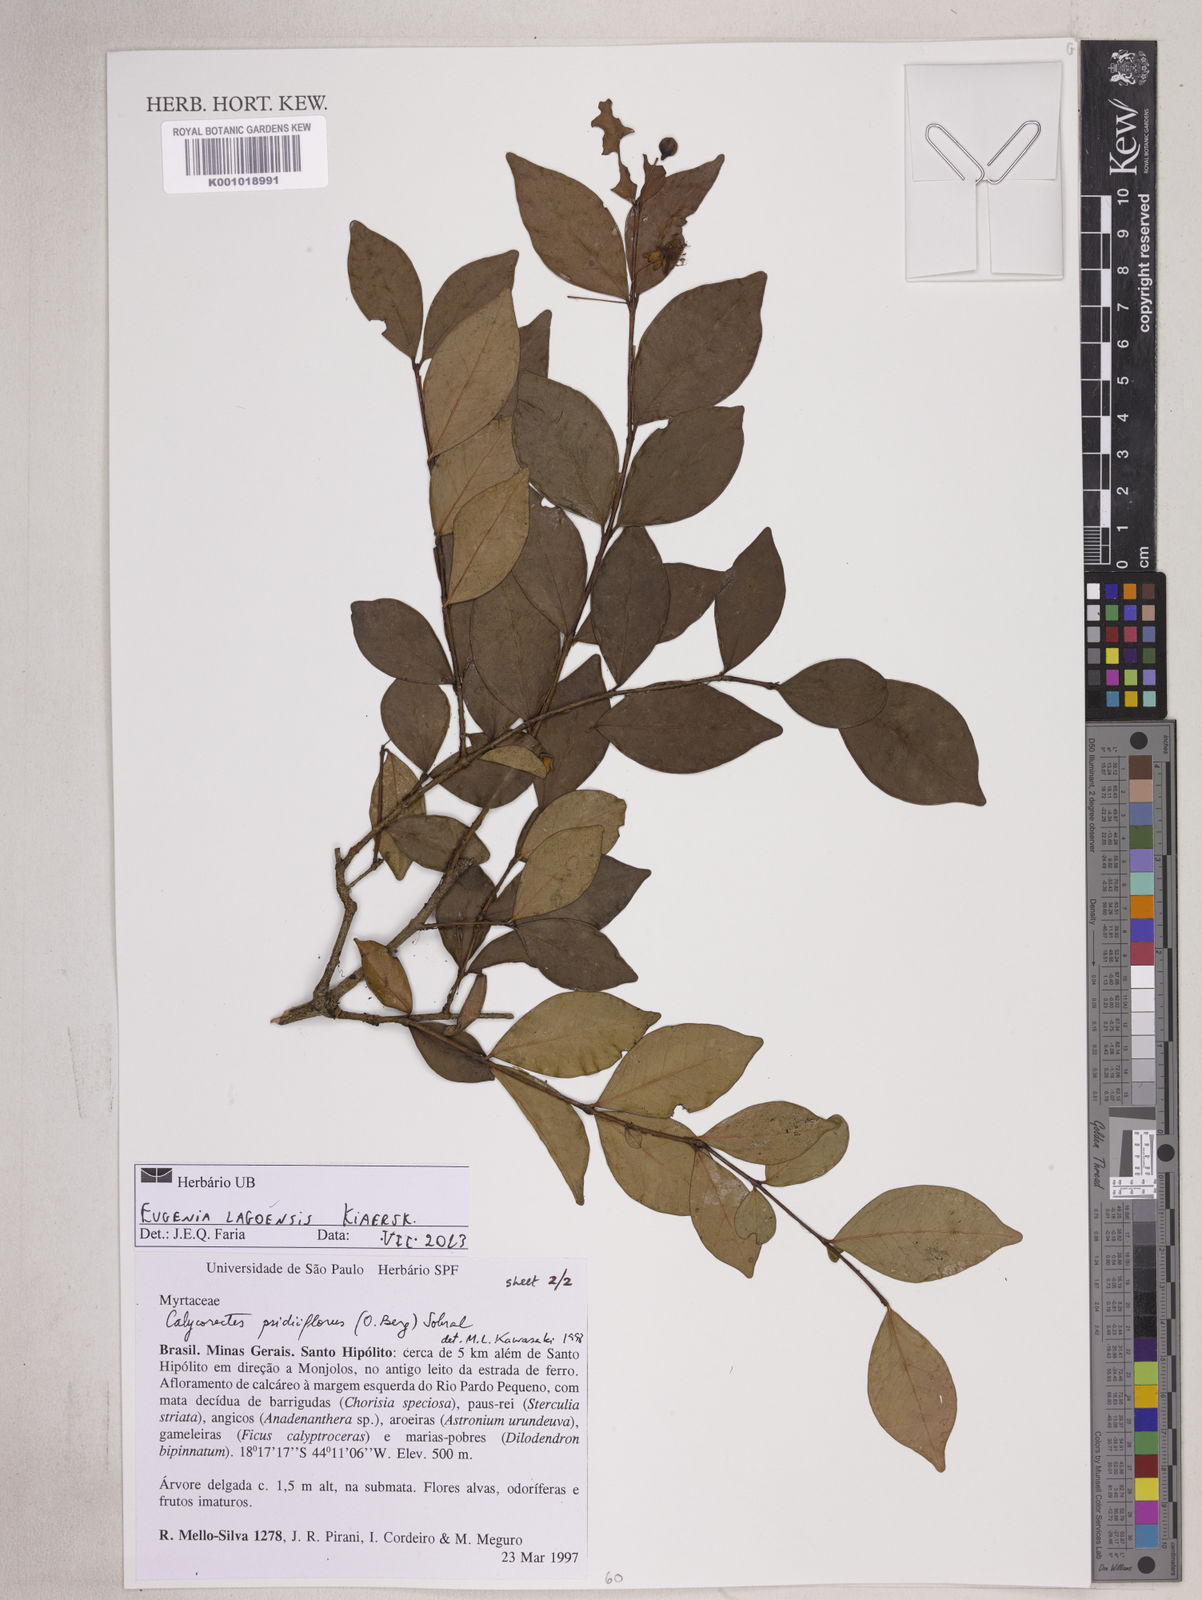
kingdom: Plantae
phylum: Tracheophyta
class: Magnoliopsida
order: Myrtales
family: Myrtaceae
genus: Eugenia
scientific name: Eugenia lagoensis
